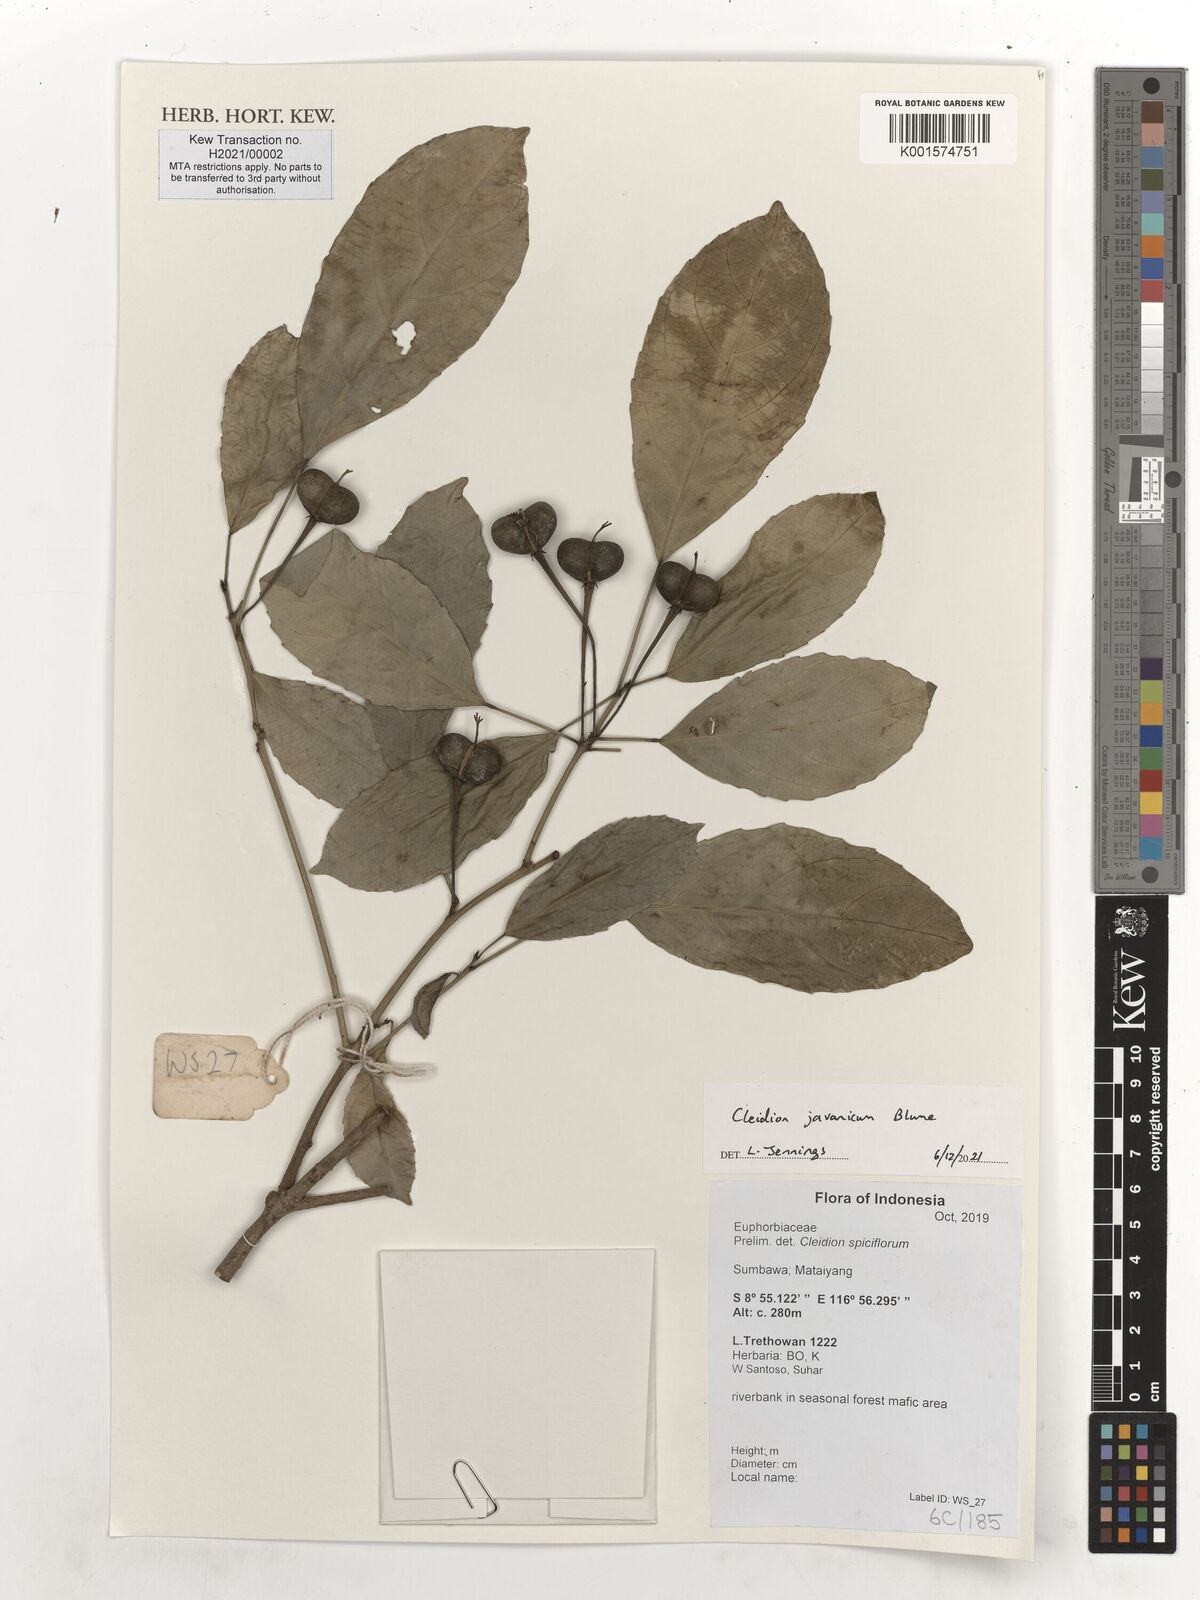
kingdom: Plantae
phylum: Tracheophyta
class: Magnoliopsida
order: Malpighiales
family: Euphorbiaceae
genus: Cleidion
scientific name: Cleidion javanicum
